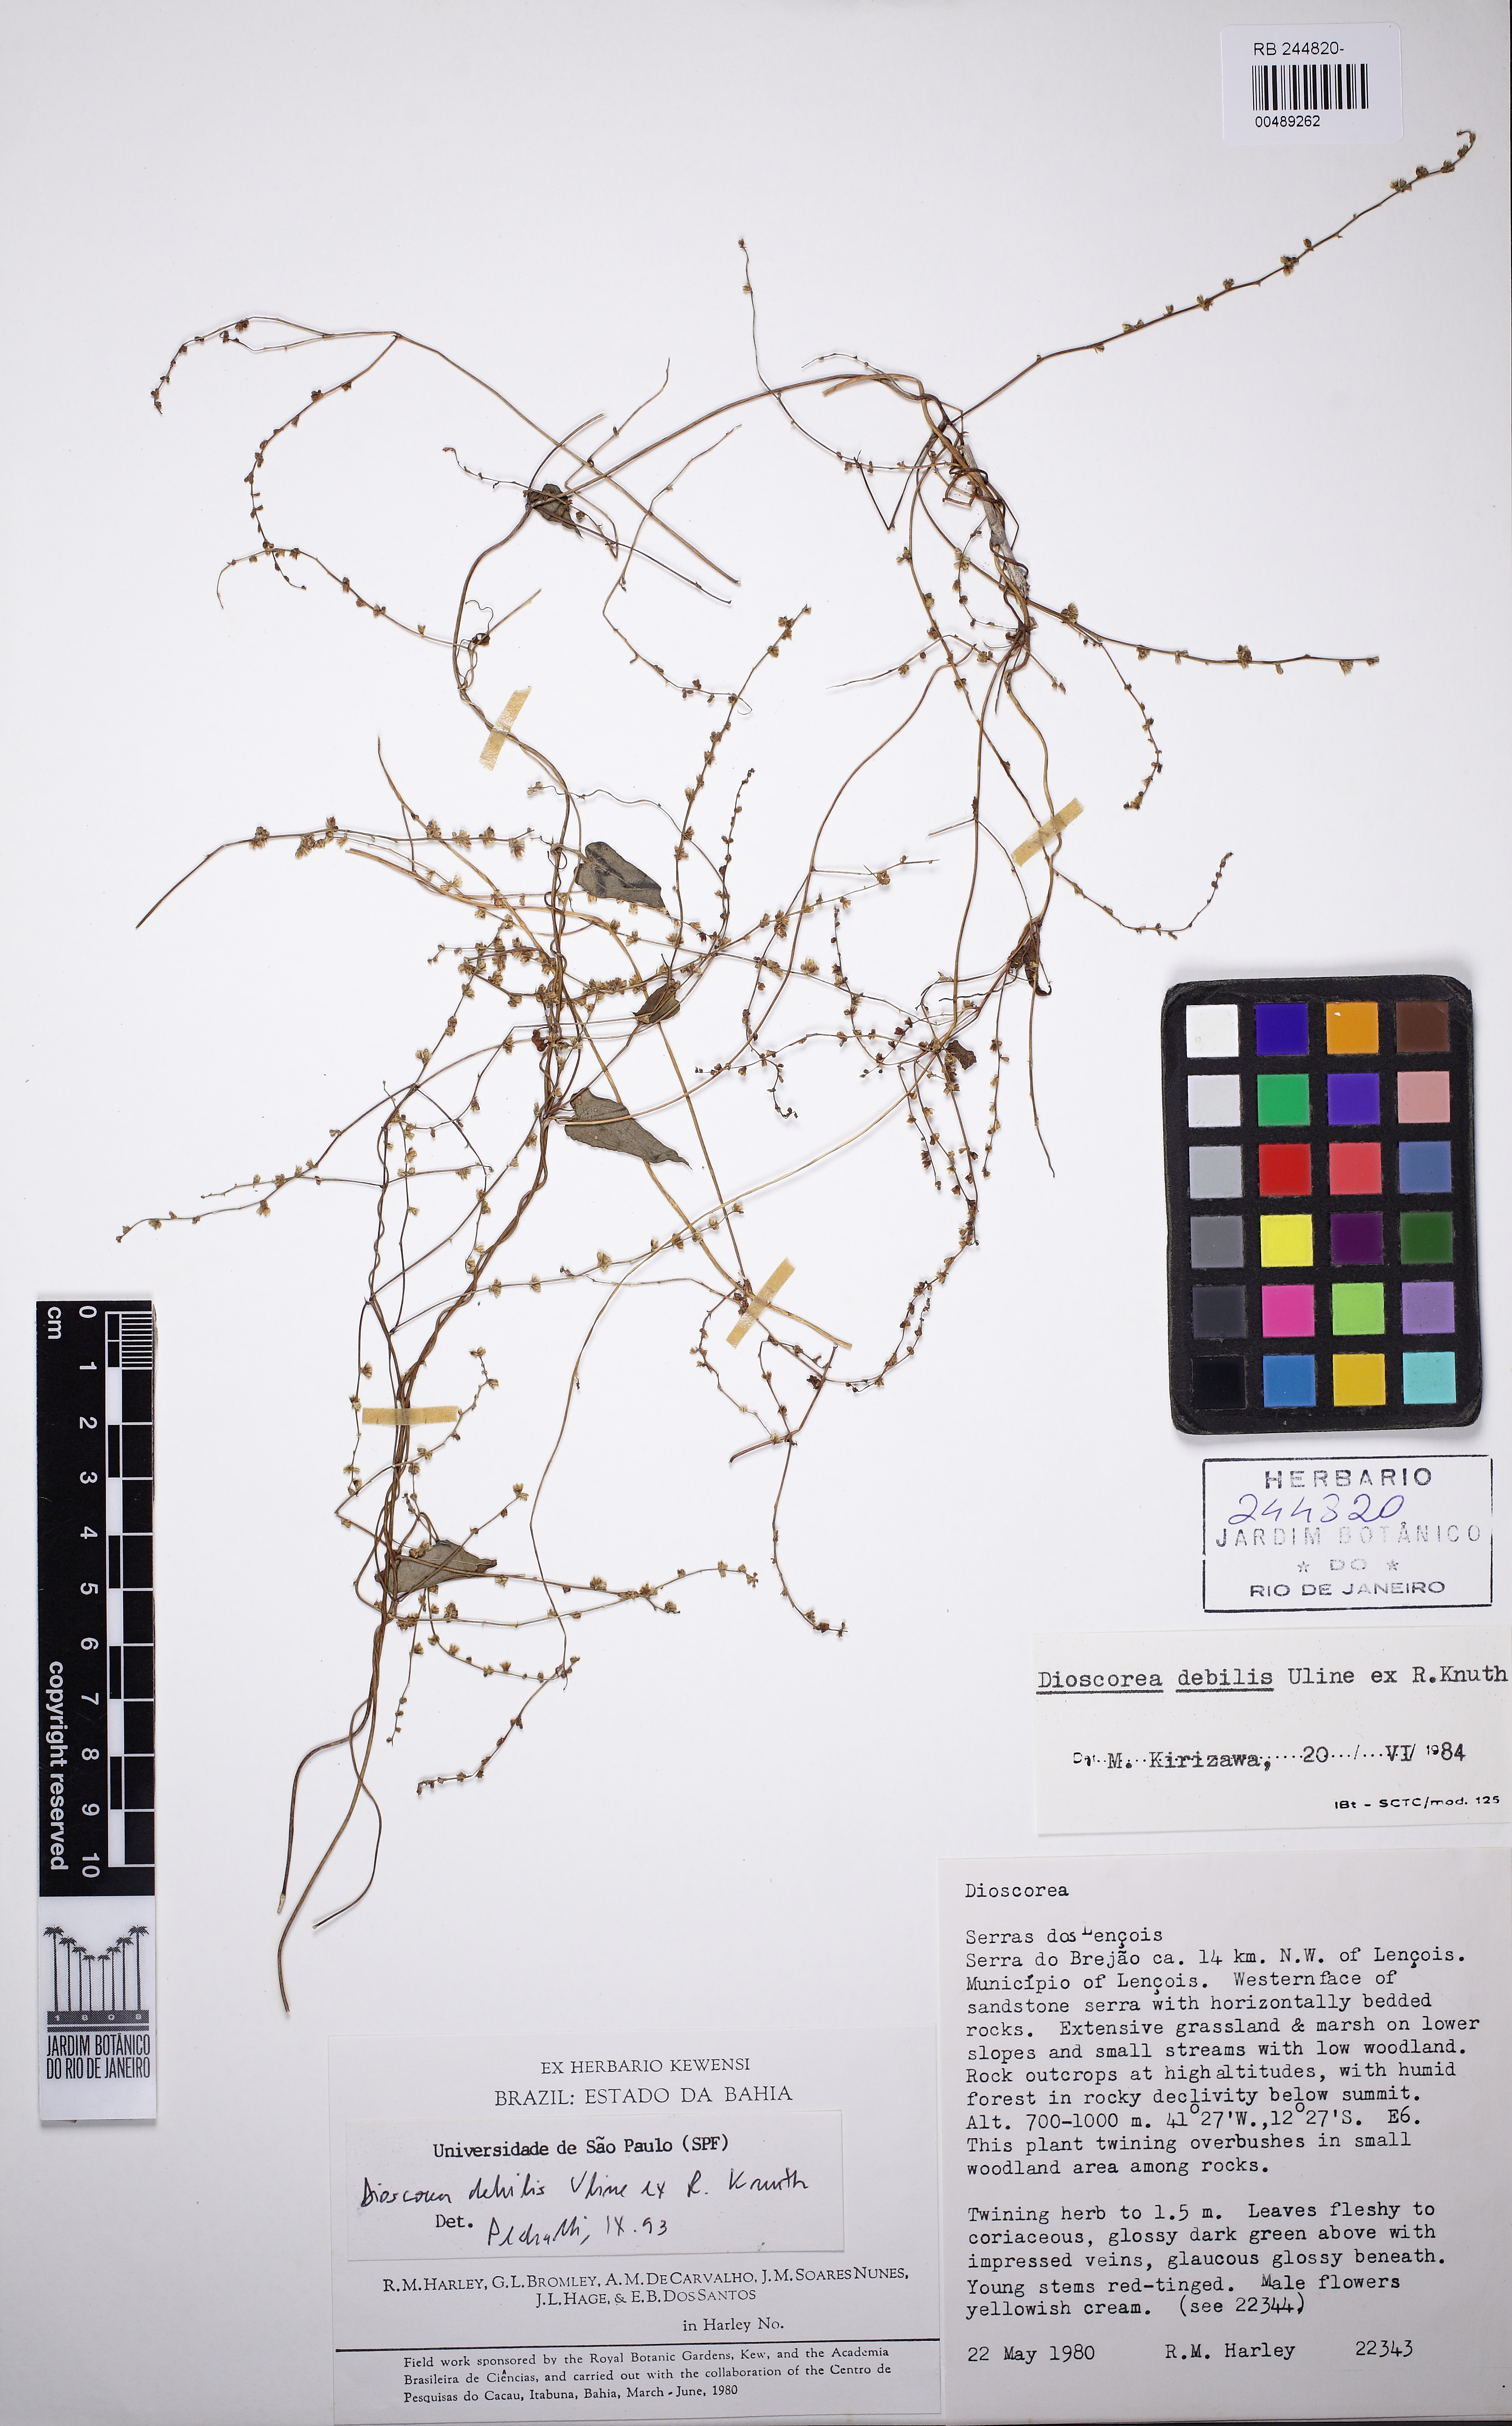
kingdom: Plantae
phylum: Tracheophyta
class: Liliopsida
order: Dioscoreales
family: Dioscoreaceae
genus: Dioscorea
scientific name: Dioscorea debilis
